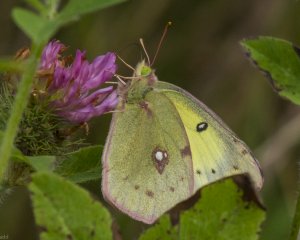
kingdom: Animalia
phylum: Arthropoda
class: Insecta
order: Lepidoptera
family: Pieridae
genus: Colias
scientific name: Colias philodice
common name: Clouded Sulphur
